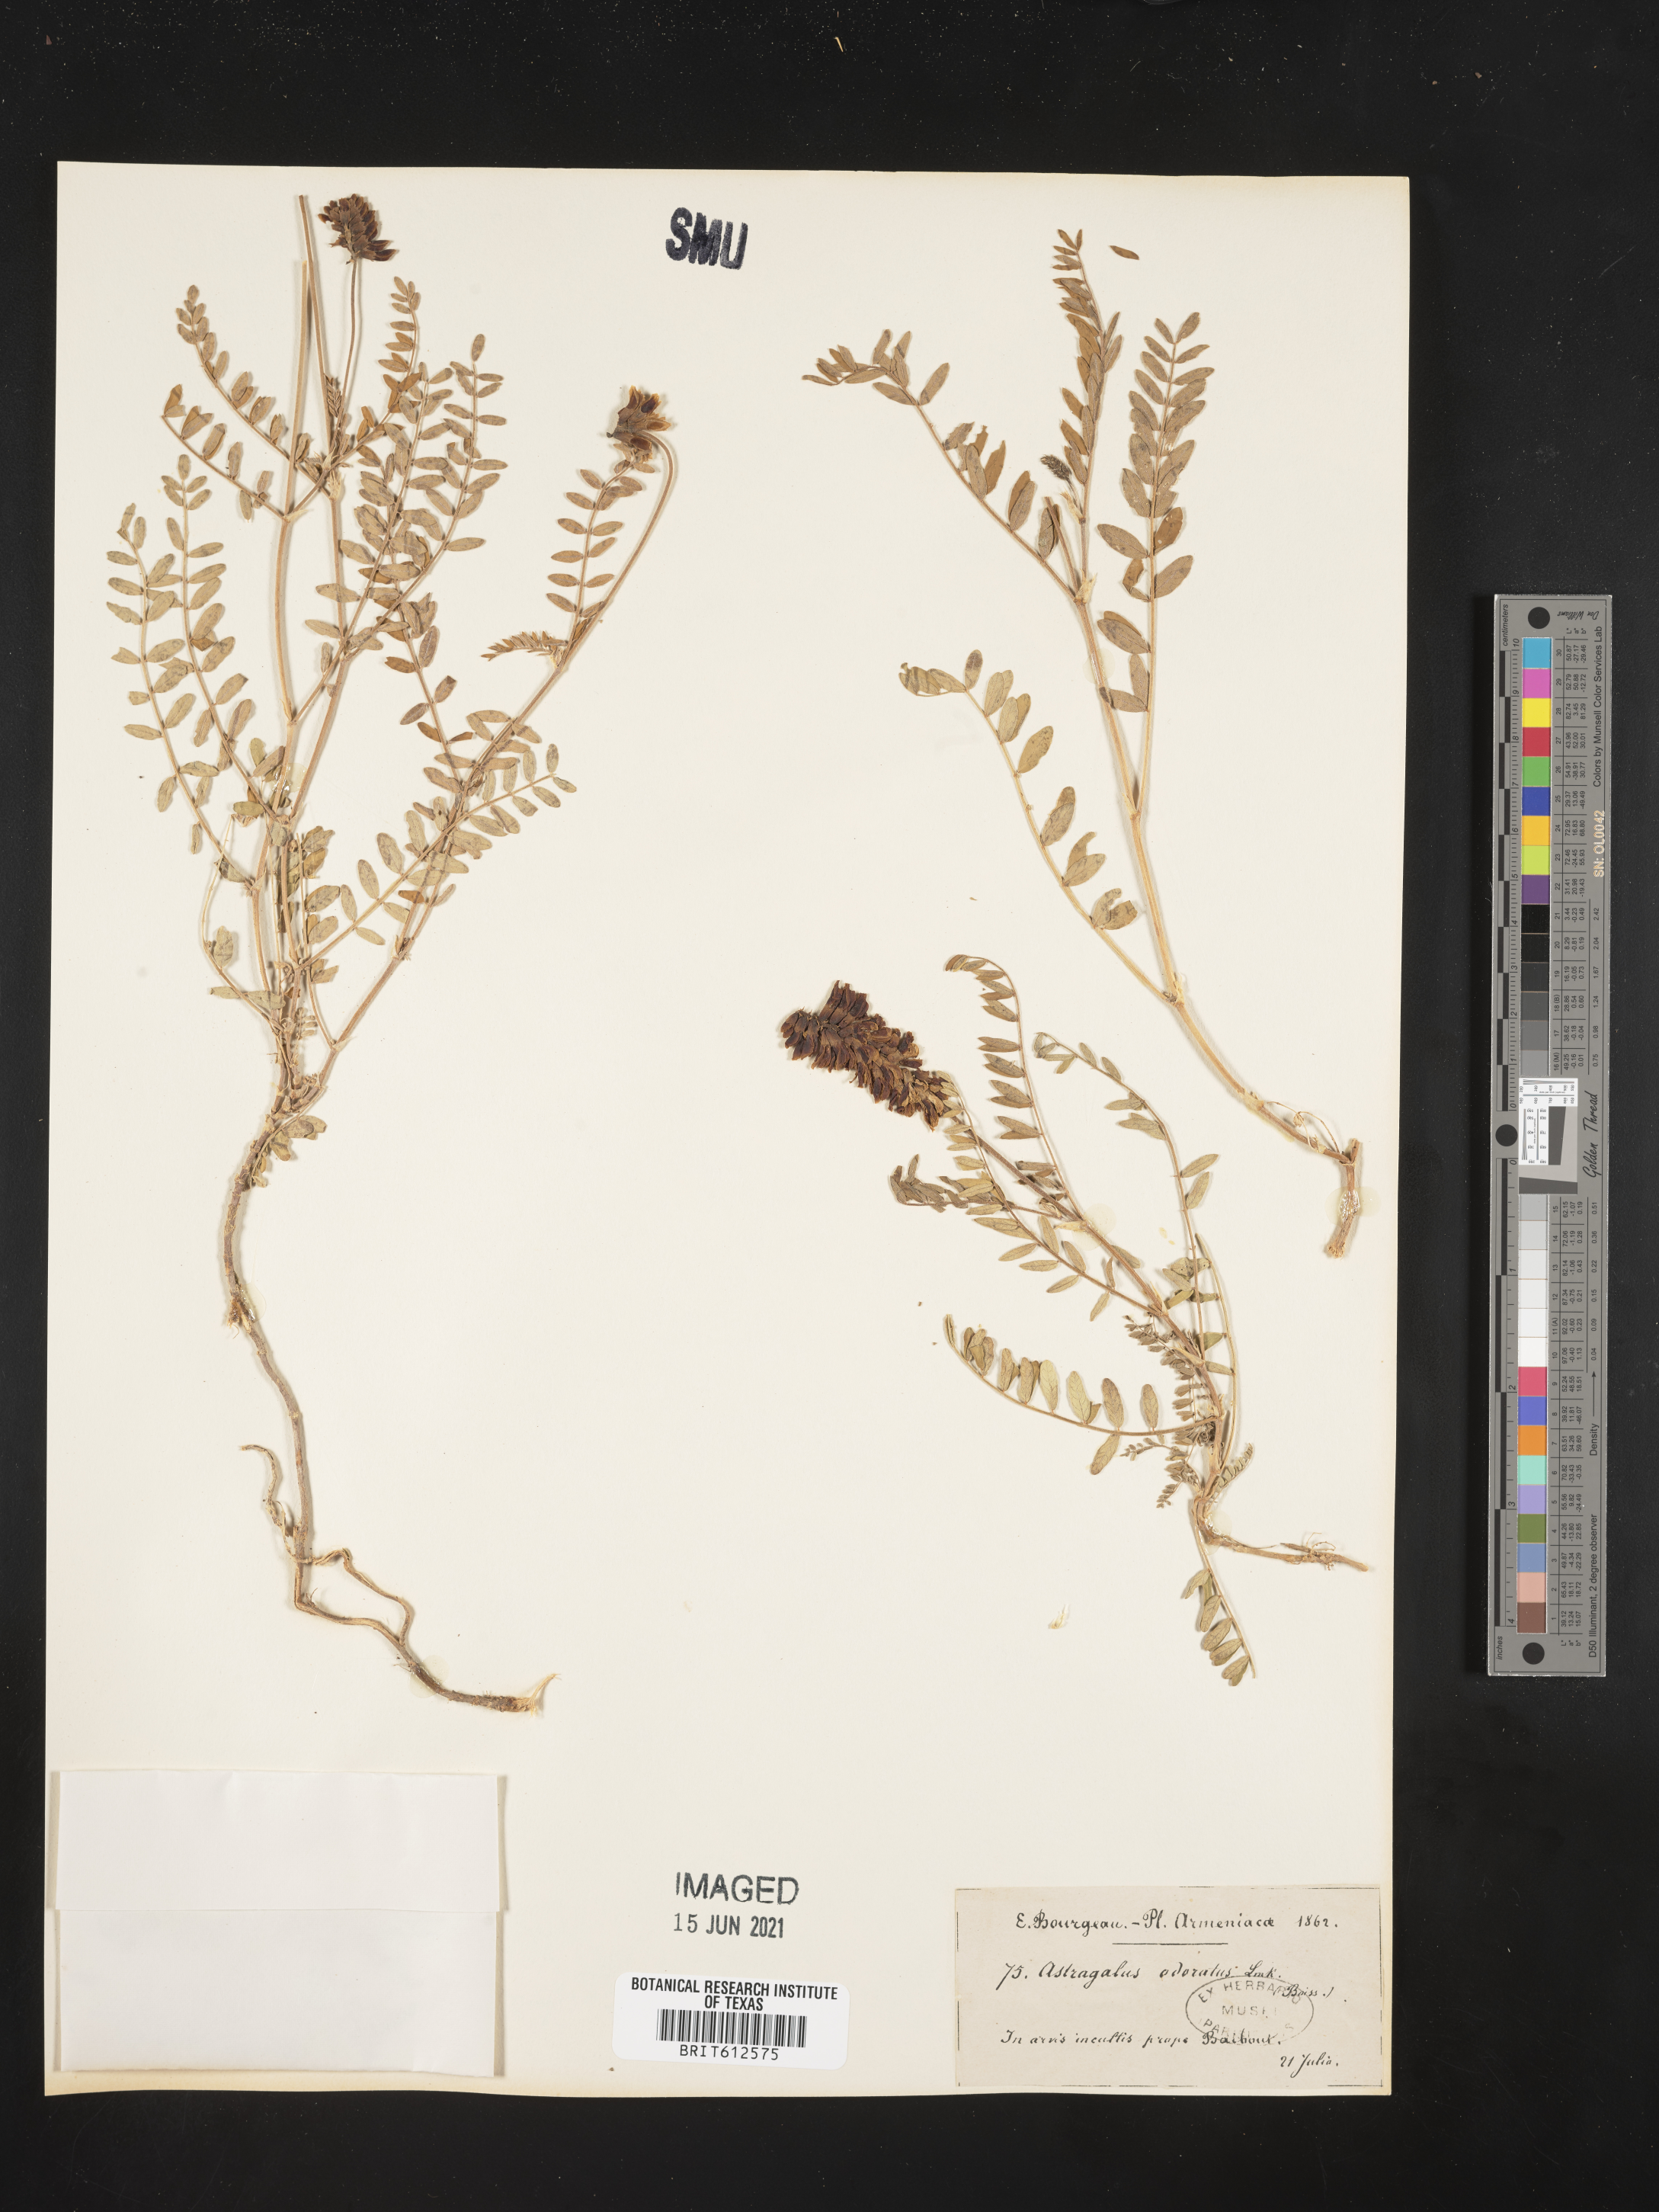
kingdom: Plantae
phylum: Tracheophyta
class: Magnoliopsida
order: Fabales
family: Fabaceae
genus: Astragalus
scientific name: Astragalus odoratus
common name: Lesser milk-vetch
